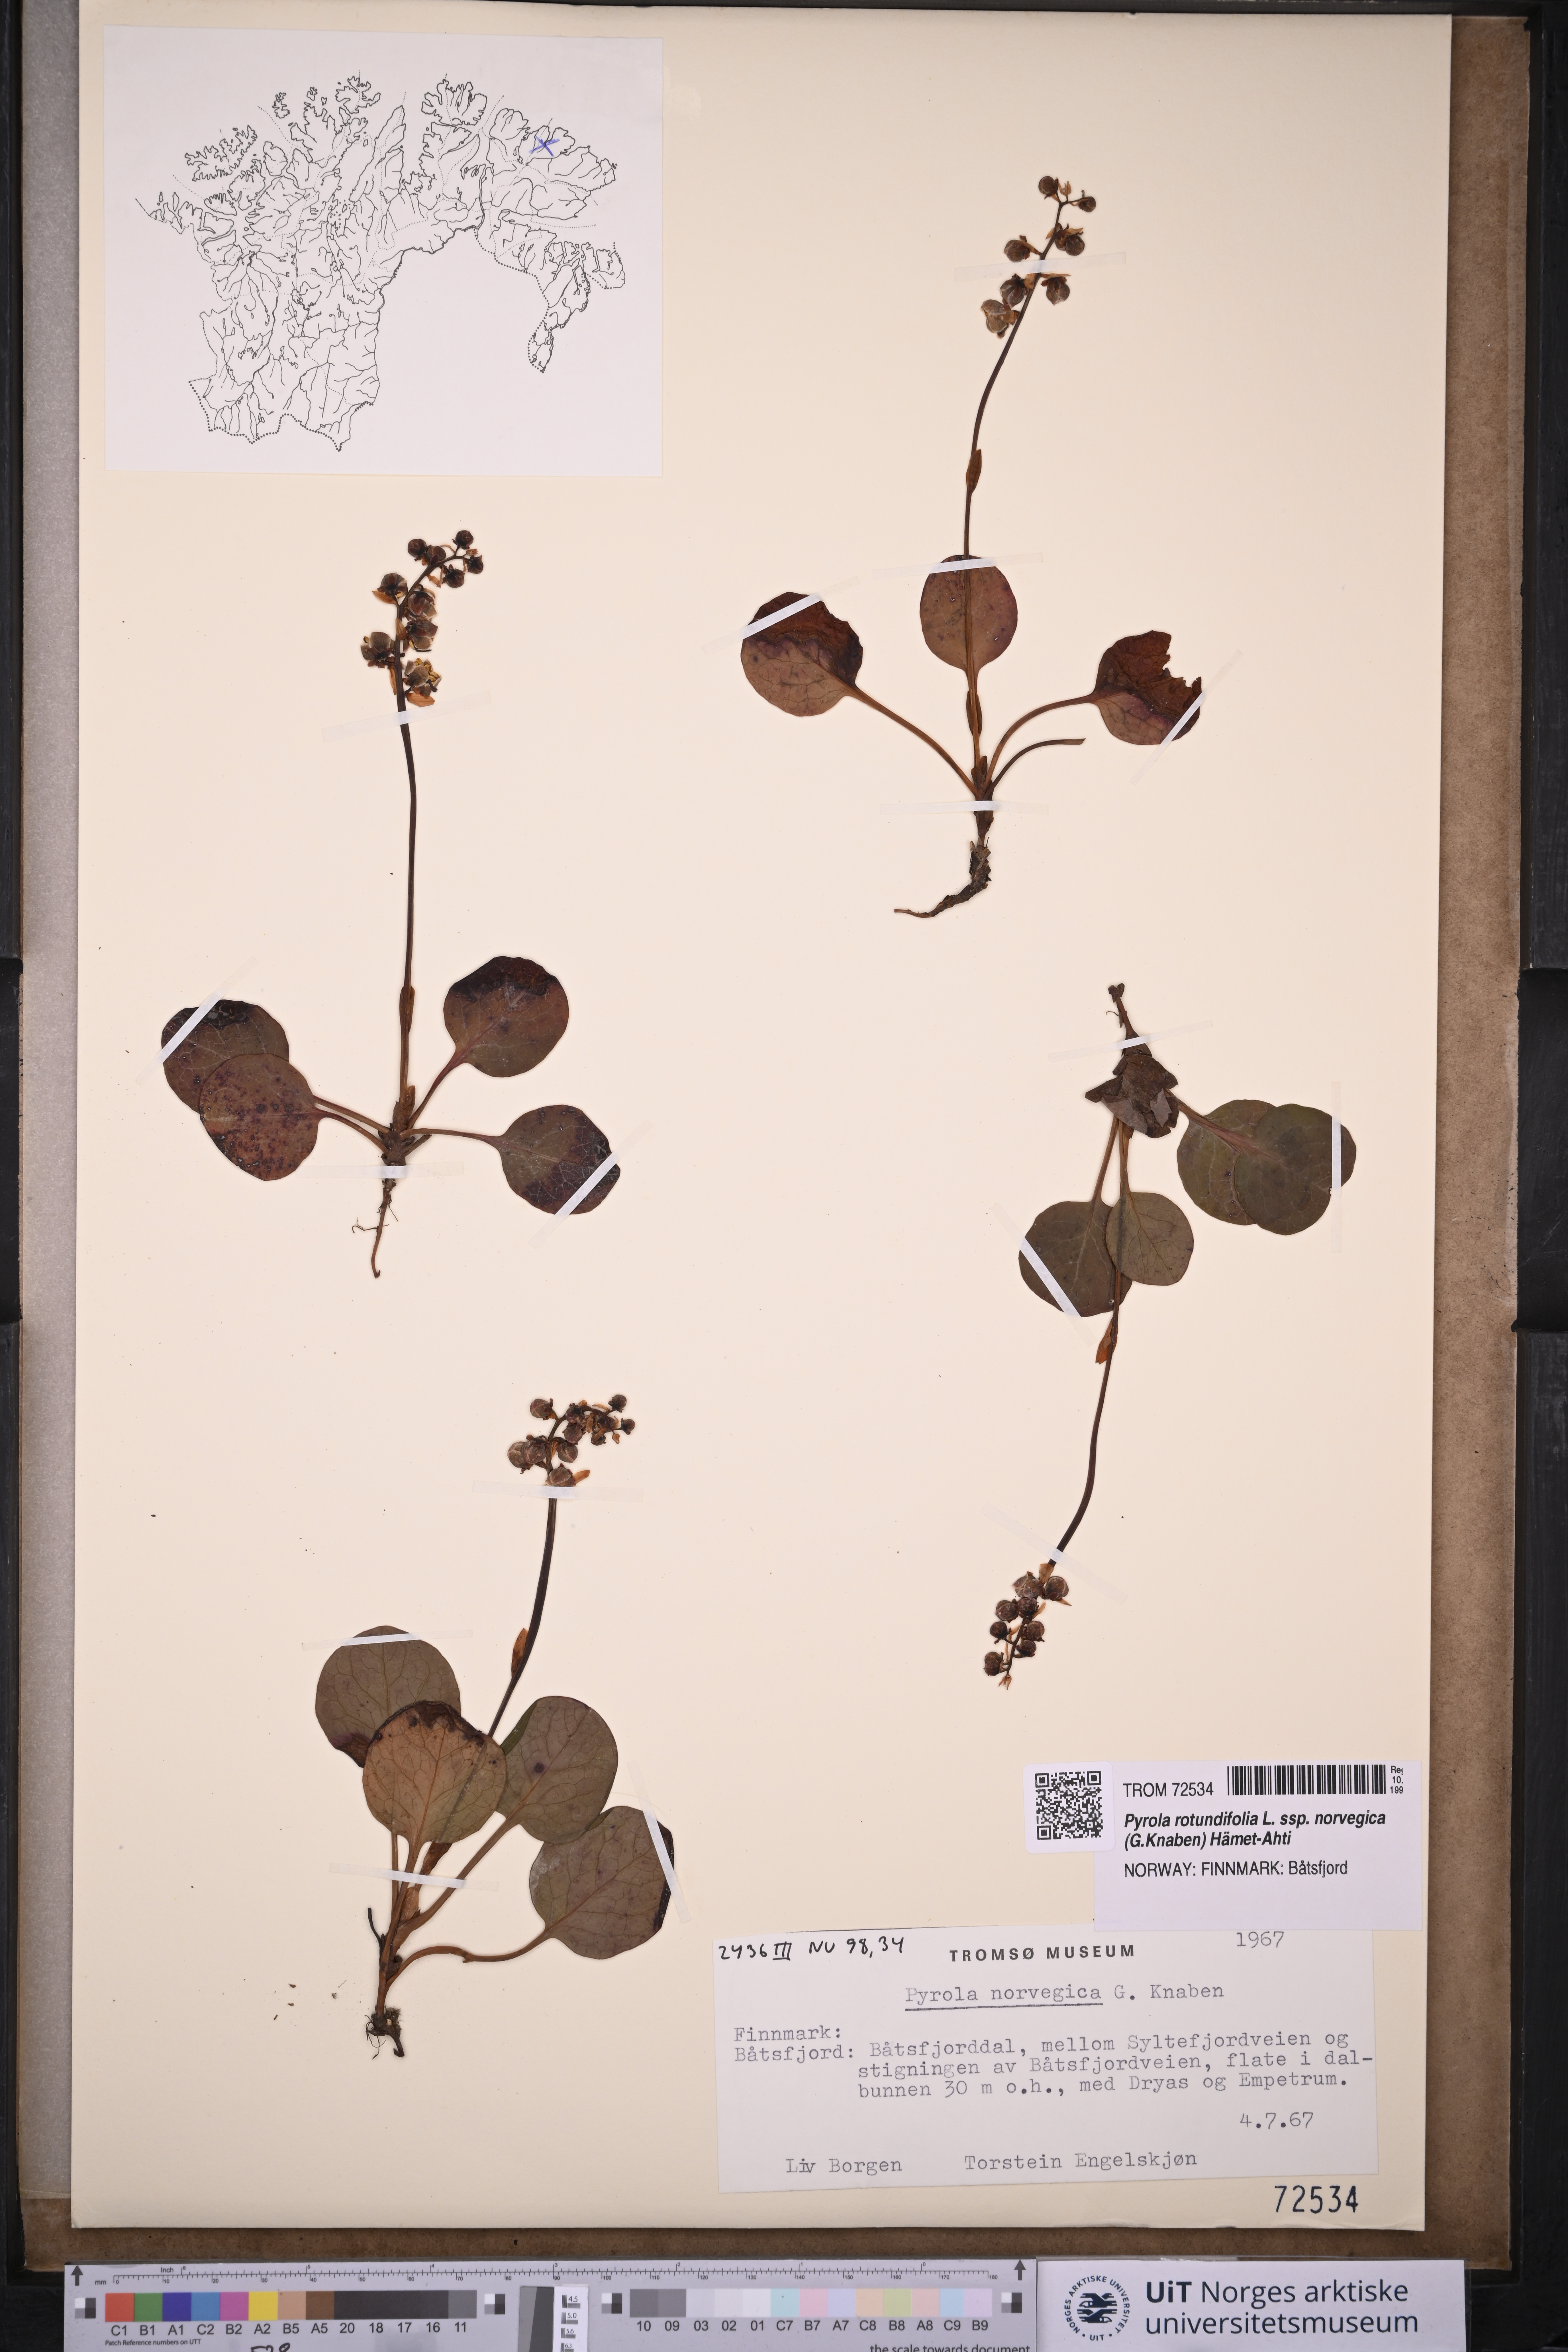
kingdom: Plantae
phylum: Tracheophyta
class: Magnoliopsida
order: Ericales
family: Ericaceae
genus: Pyrola
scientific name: Pyrola rotundifolia
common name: Round-leaved wintergreen
